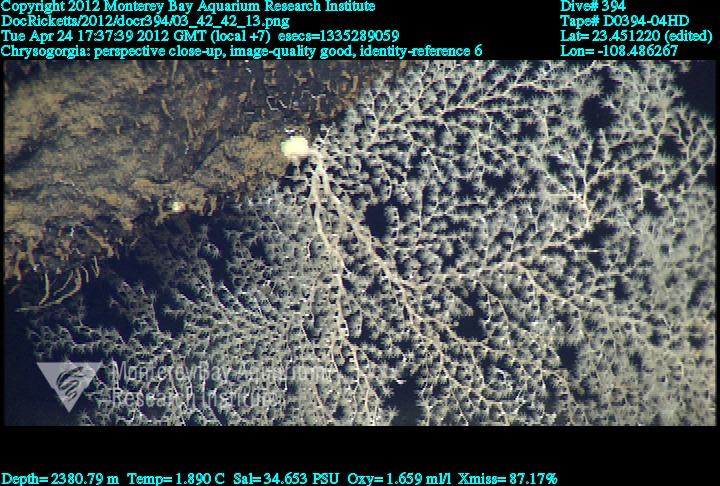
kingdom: Animalia
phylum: Cnidaria
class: Anthozoa
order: Scleralcyonacea
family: Chrysogorgiidae
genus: Chrysogorgia
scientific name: Chrysogorgia
